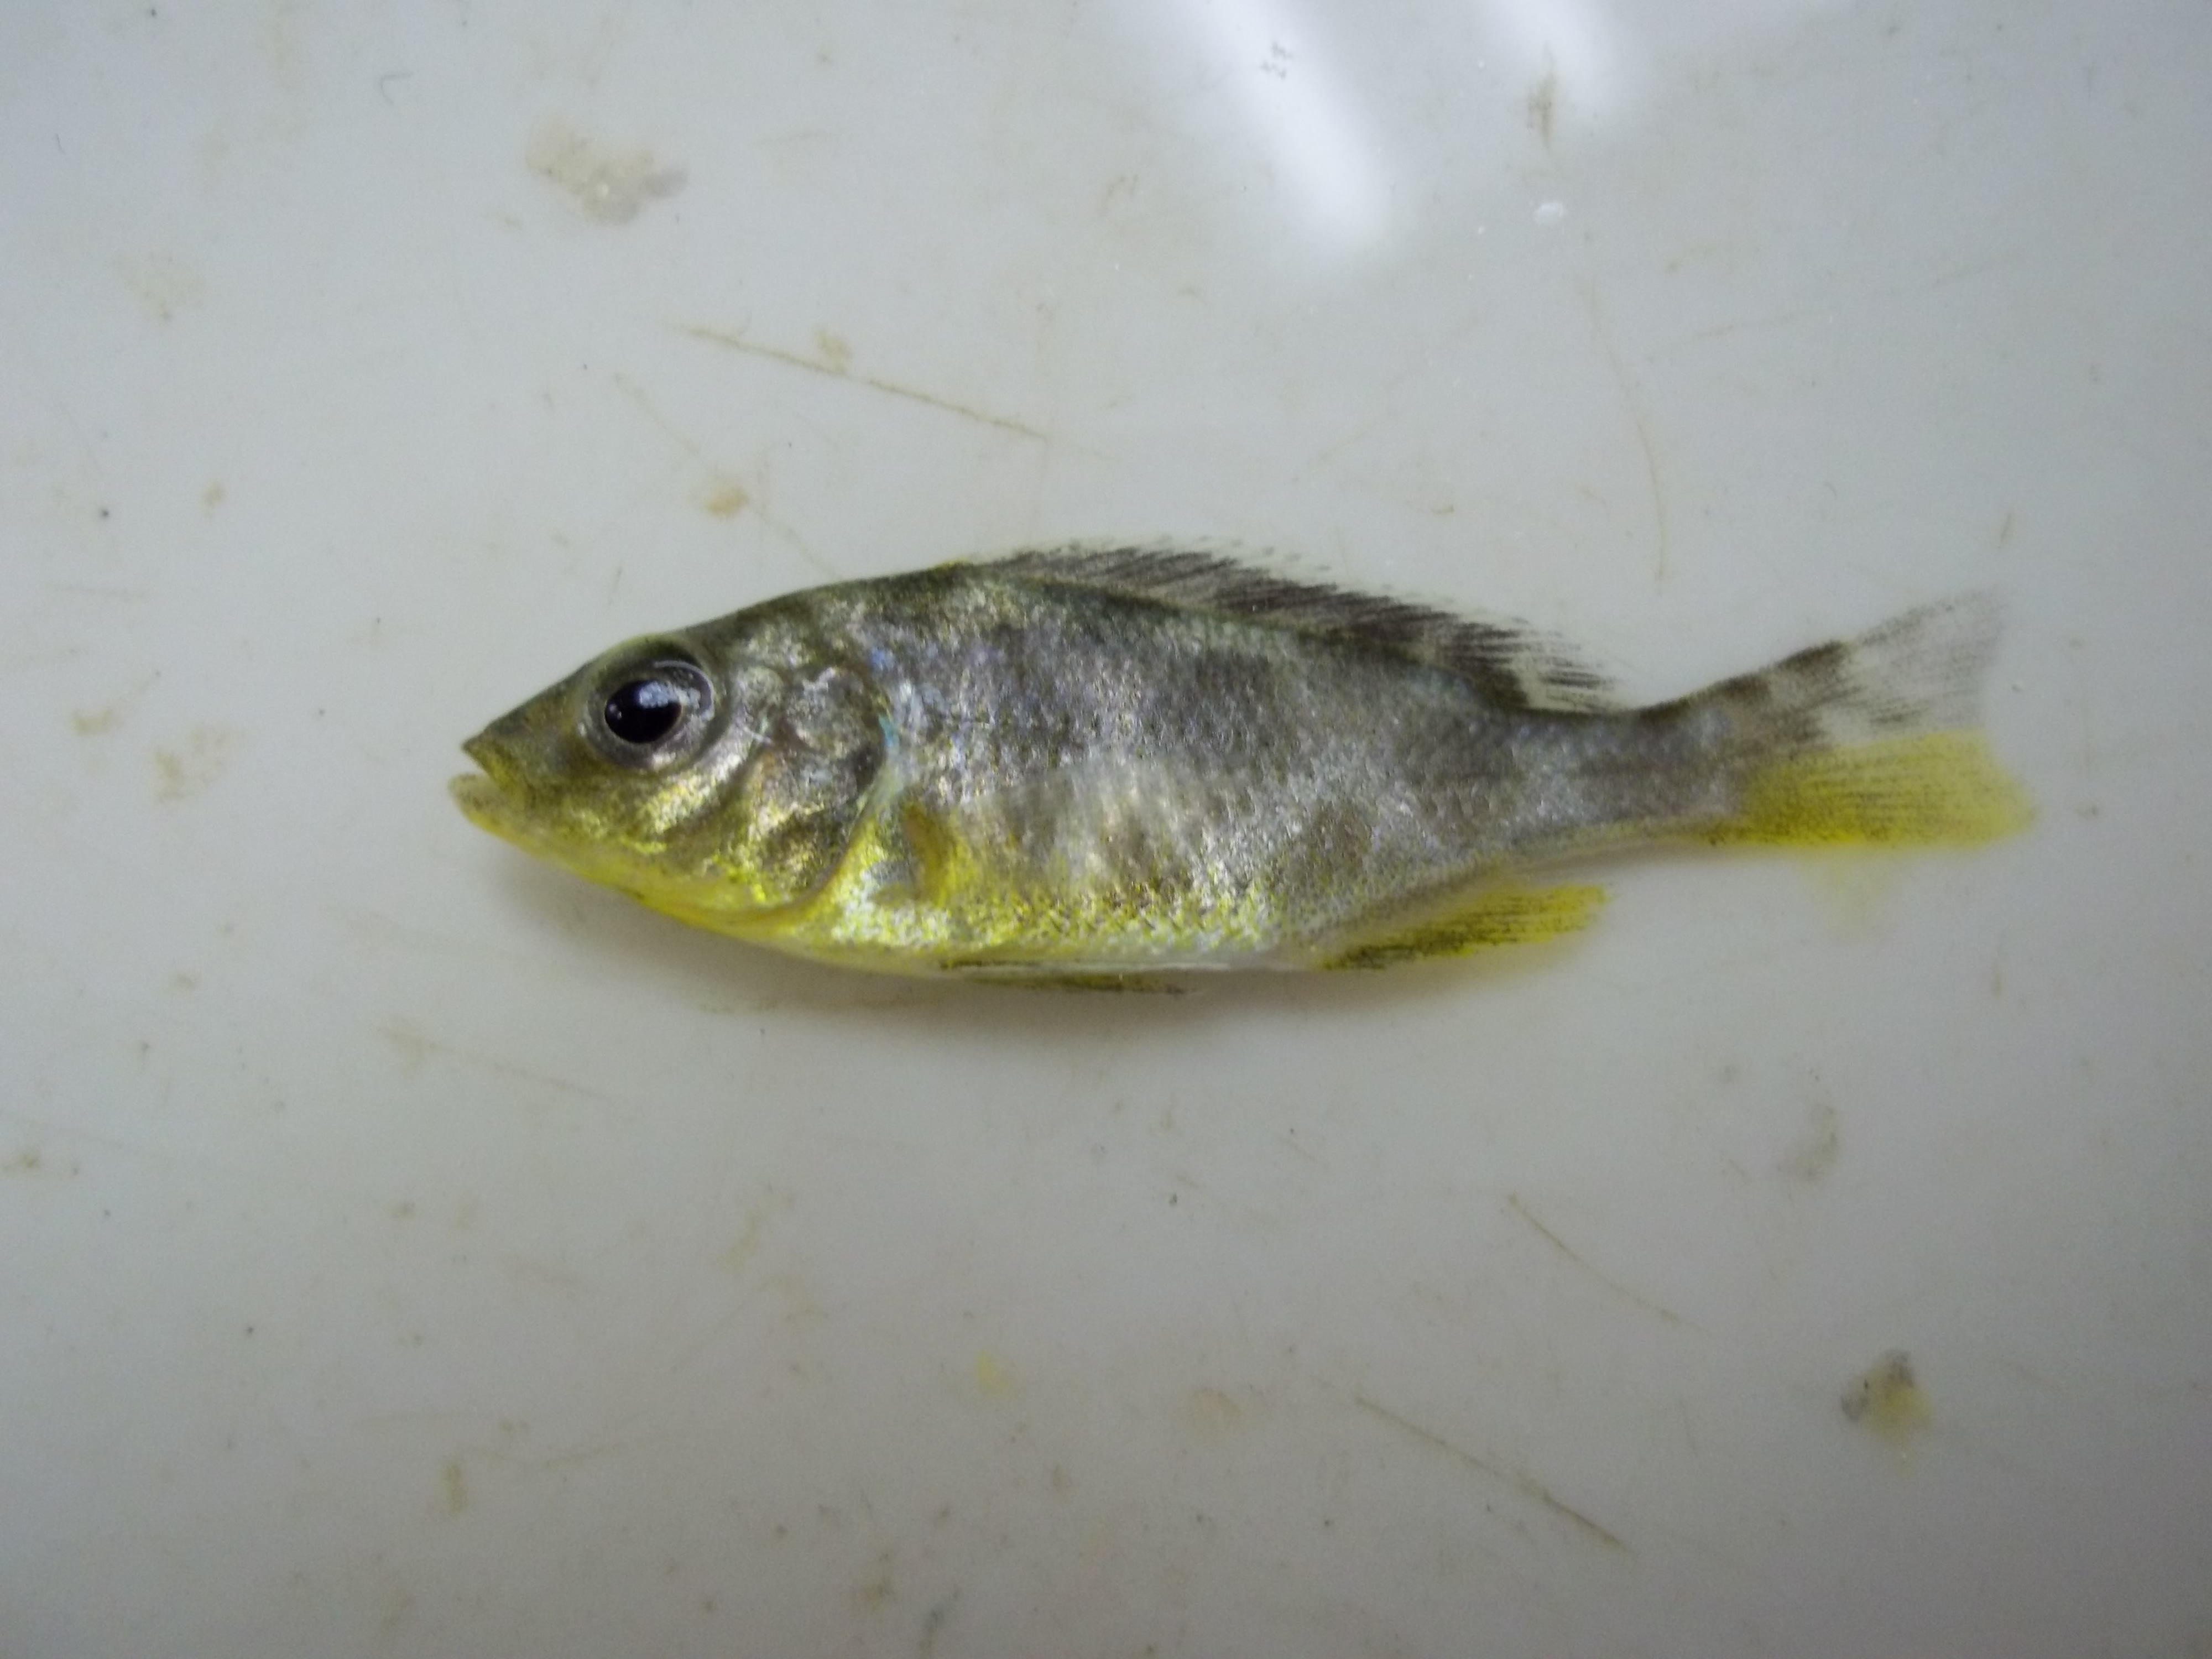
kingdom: Animalia
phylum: Chordata
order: Perciformes
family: Cichlidae
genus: Nimbochromis
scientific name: Nimbochromis venustus
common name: Venustus
